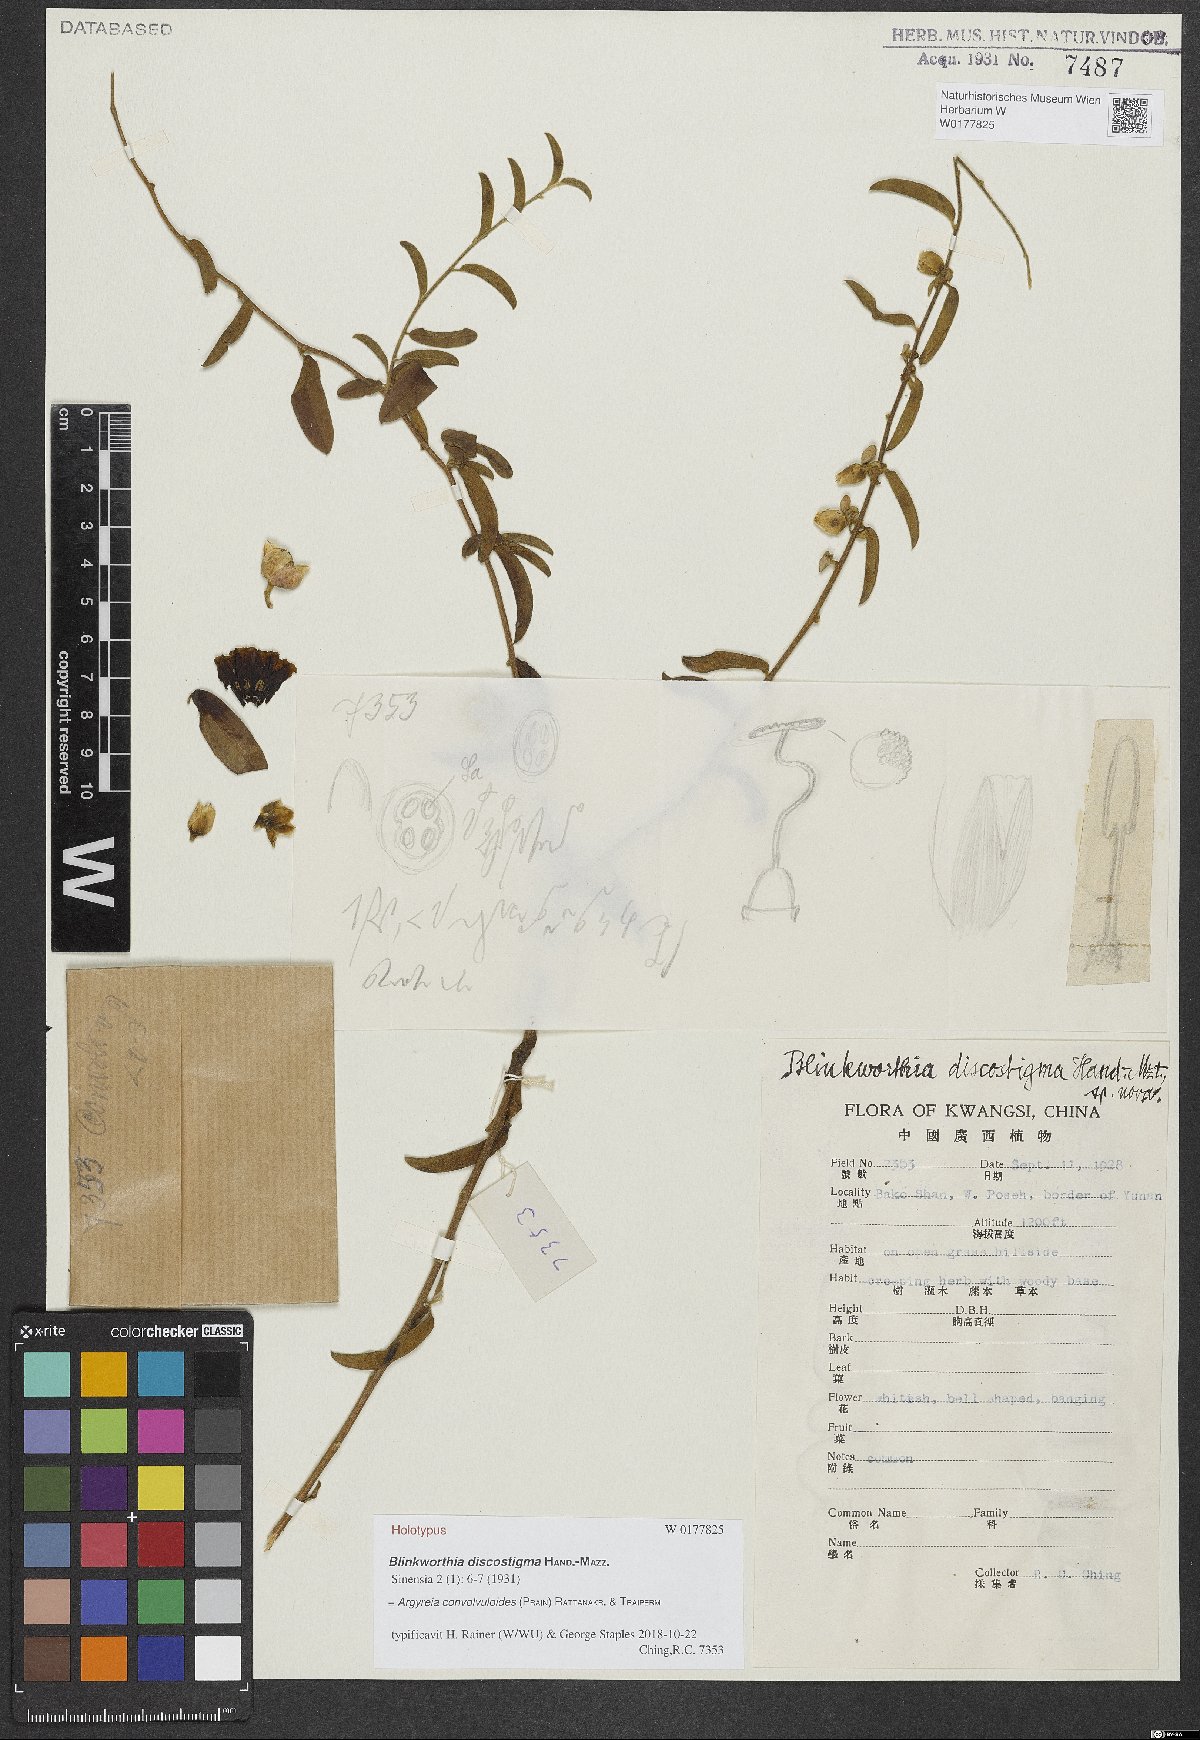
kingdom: Plantae
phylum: Tracheophyta
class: Magnoliopsida
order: Solanales
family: Convolvulaceae
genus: Blinkworthia
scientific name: Blinkworthia convolvuloides
